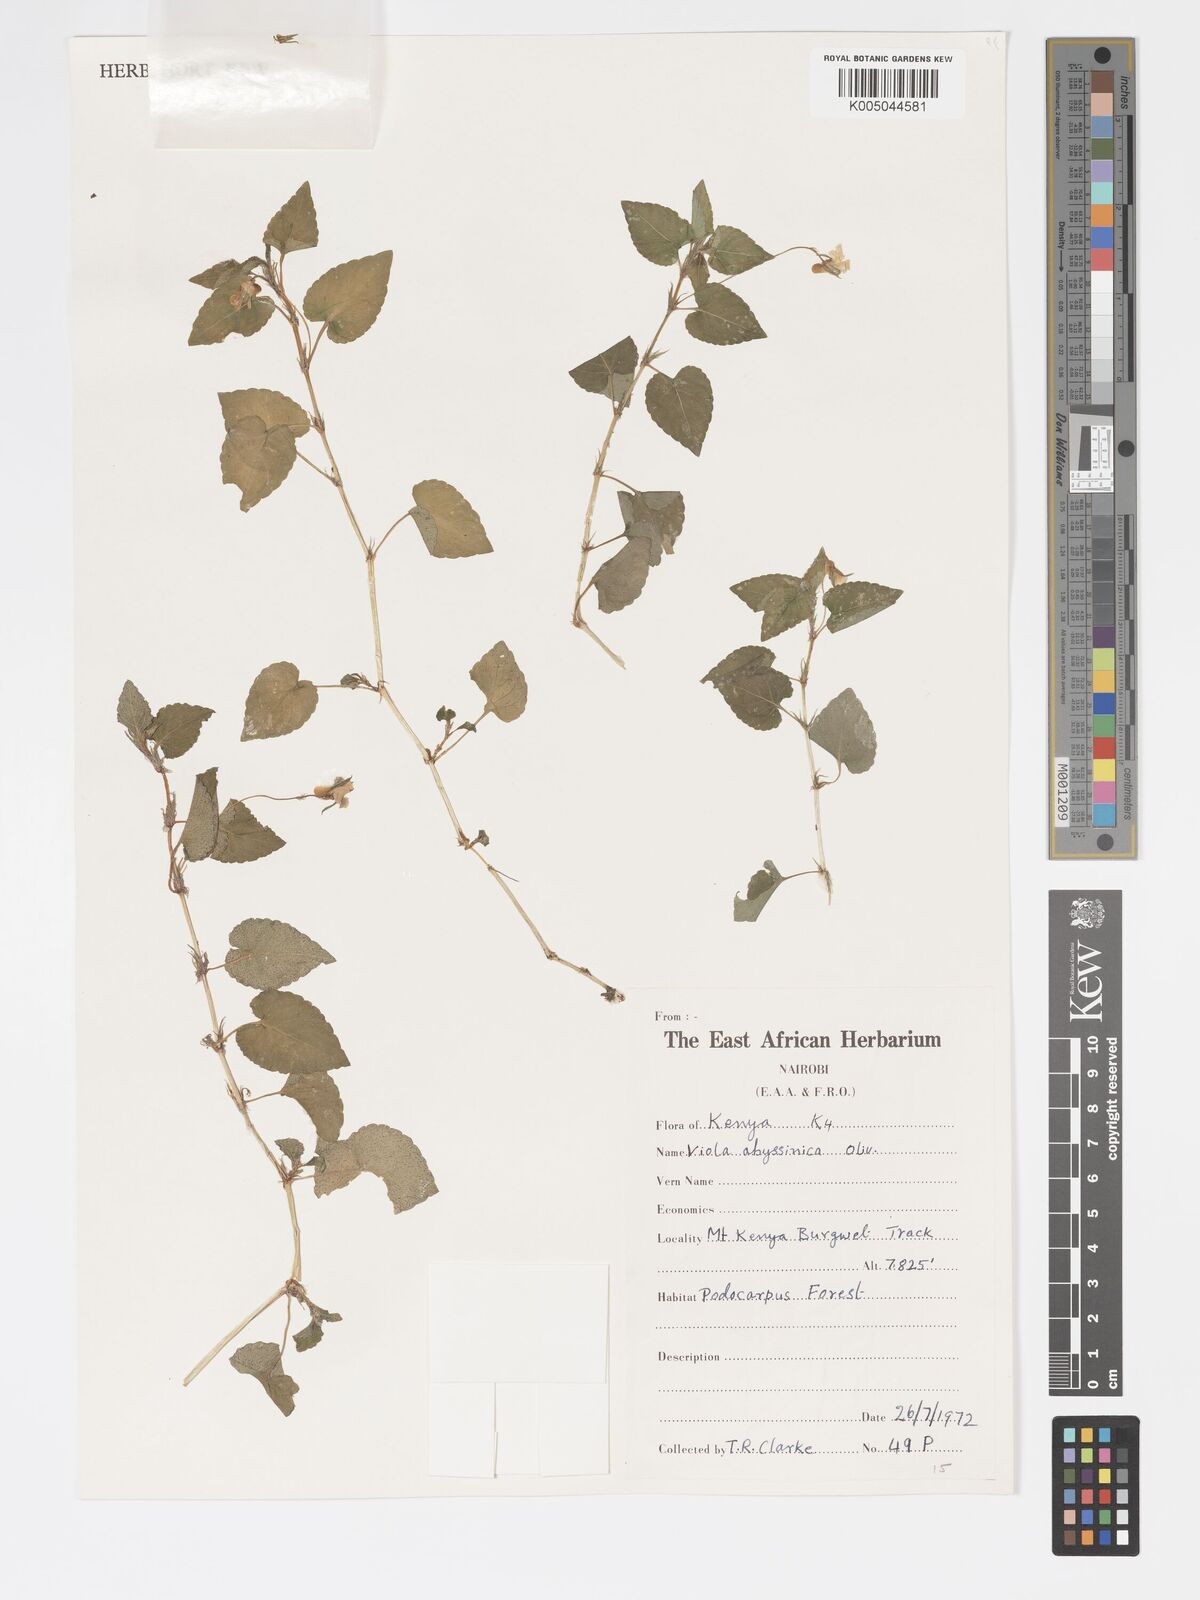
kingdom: Plantae
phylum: Tracheophyta
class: Magnoliopsida
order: Malpighiales
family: Violaceae
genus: Viola
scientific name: Viola abyssinica
